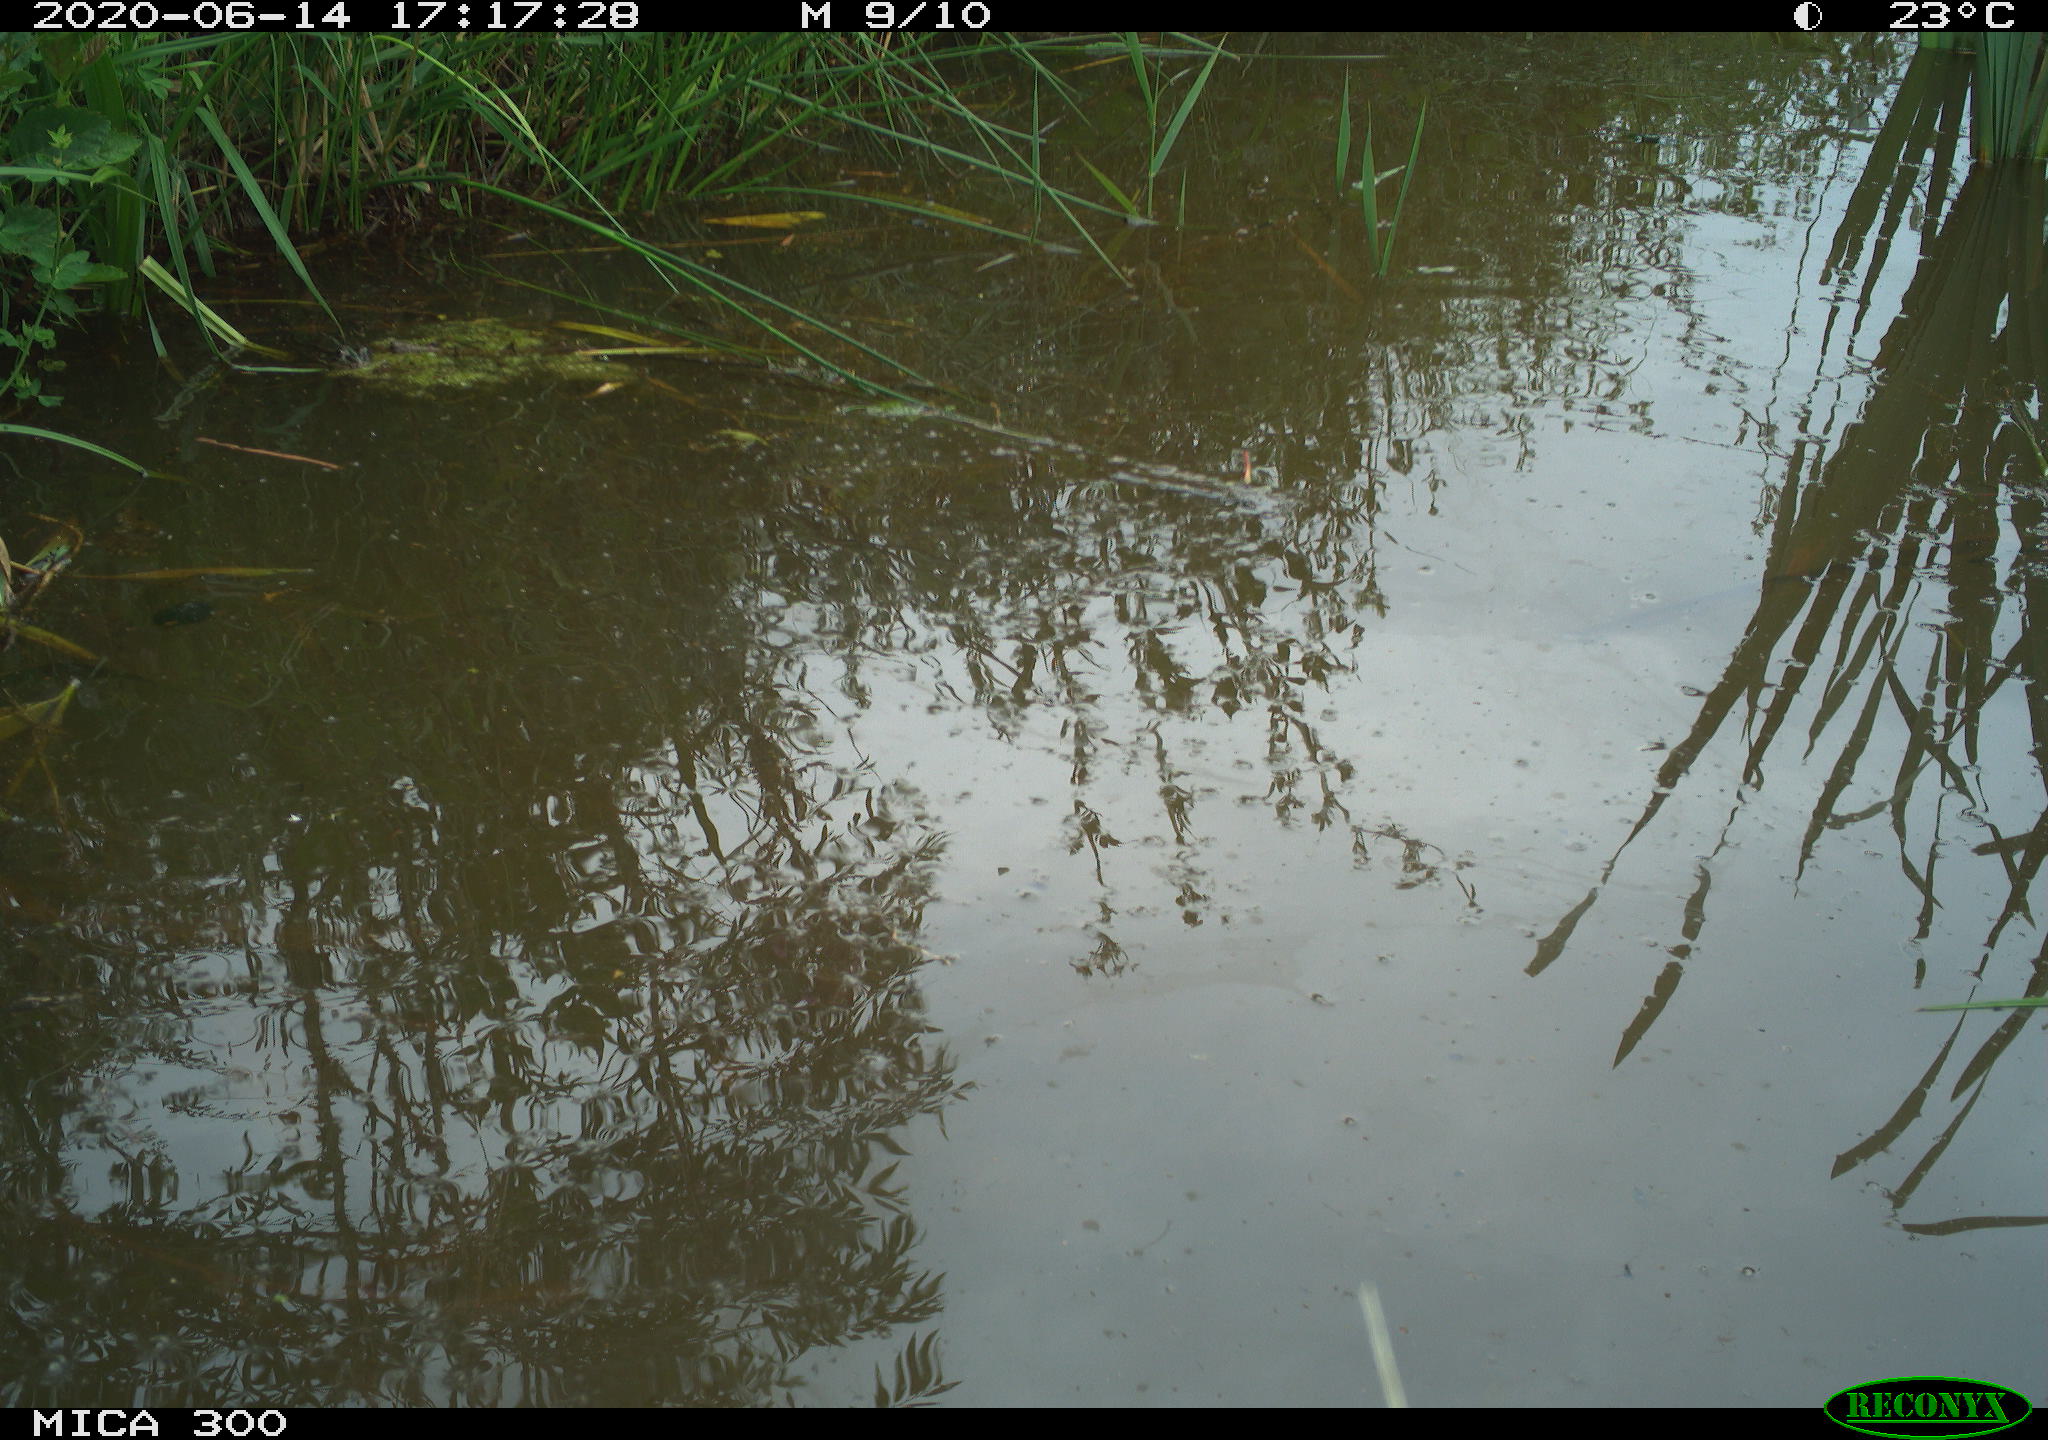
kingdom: Animalia
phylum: Chordata
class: Mammalia
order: Rodentia
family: Cricetidae
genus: Arvicola
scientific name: Arvicola amphibius
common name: European water vole
